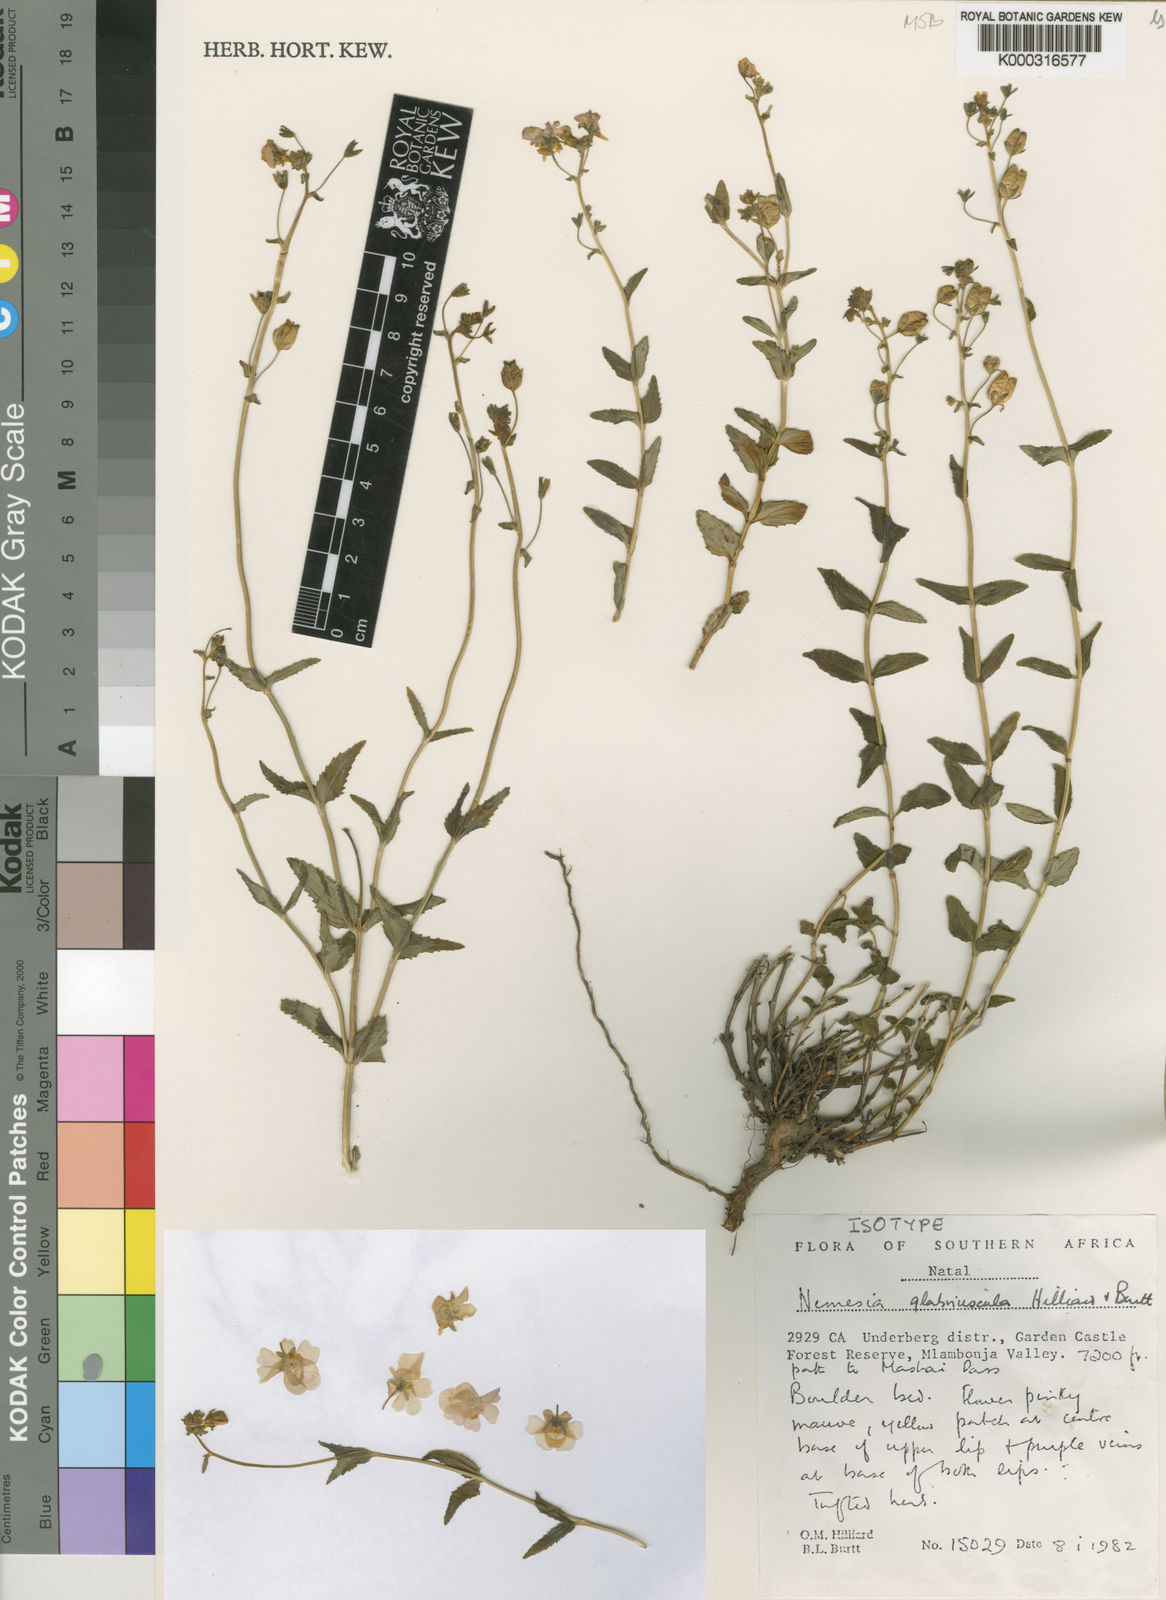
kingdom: Plantae
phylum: Tracheophyta
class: Magnoliopsida
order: Lamiales
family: Scrophulariaceae
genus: Nemesia
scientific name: Nemesia glabriuscula
